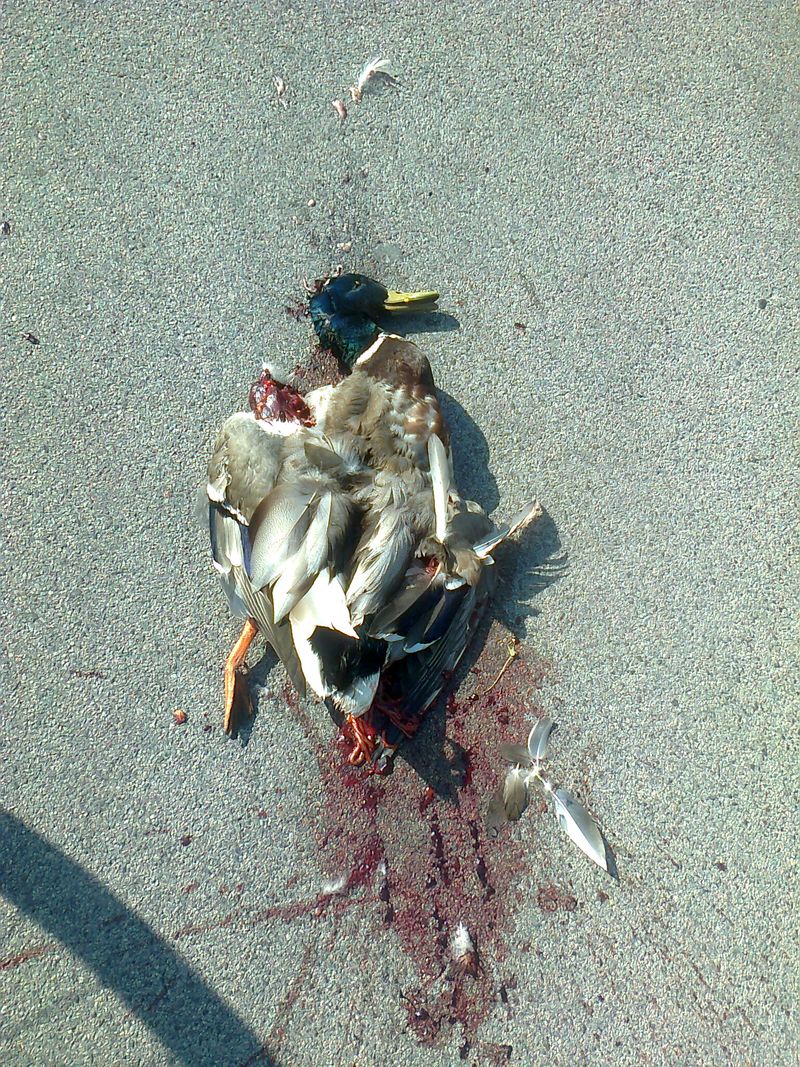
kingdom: Animalia
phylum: Chordata
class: Aves
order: Anseriformes
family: Anatidae
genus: Anas
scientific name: Anas platyrhynchos
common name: Mallard
